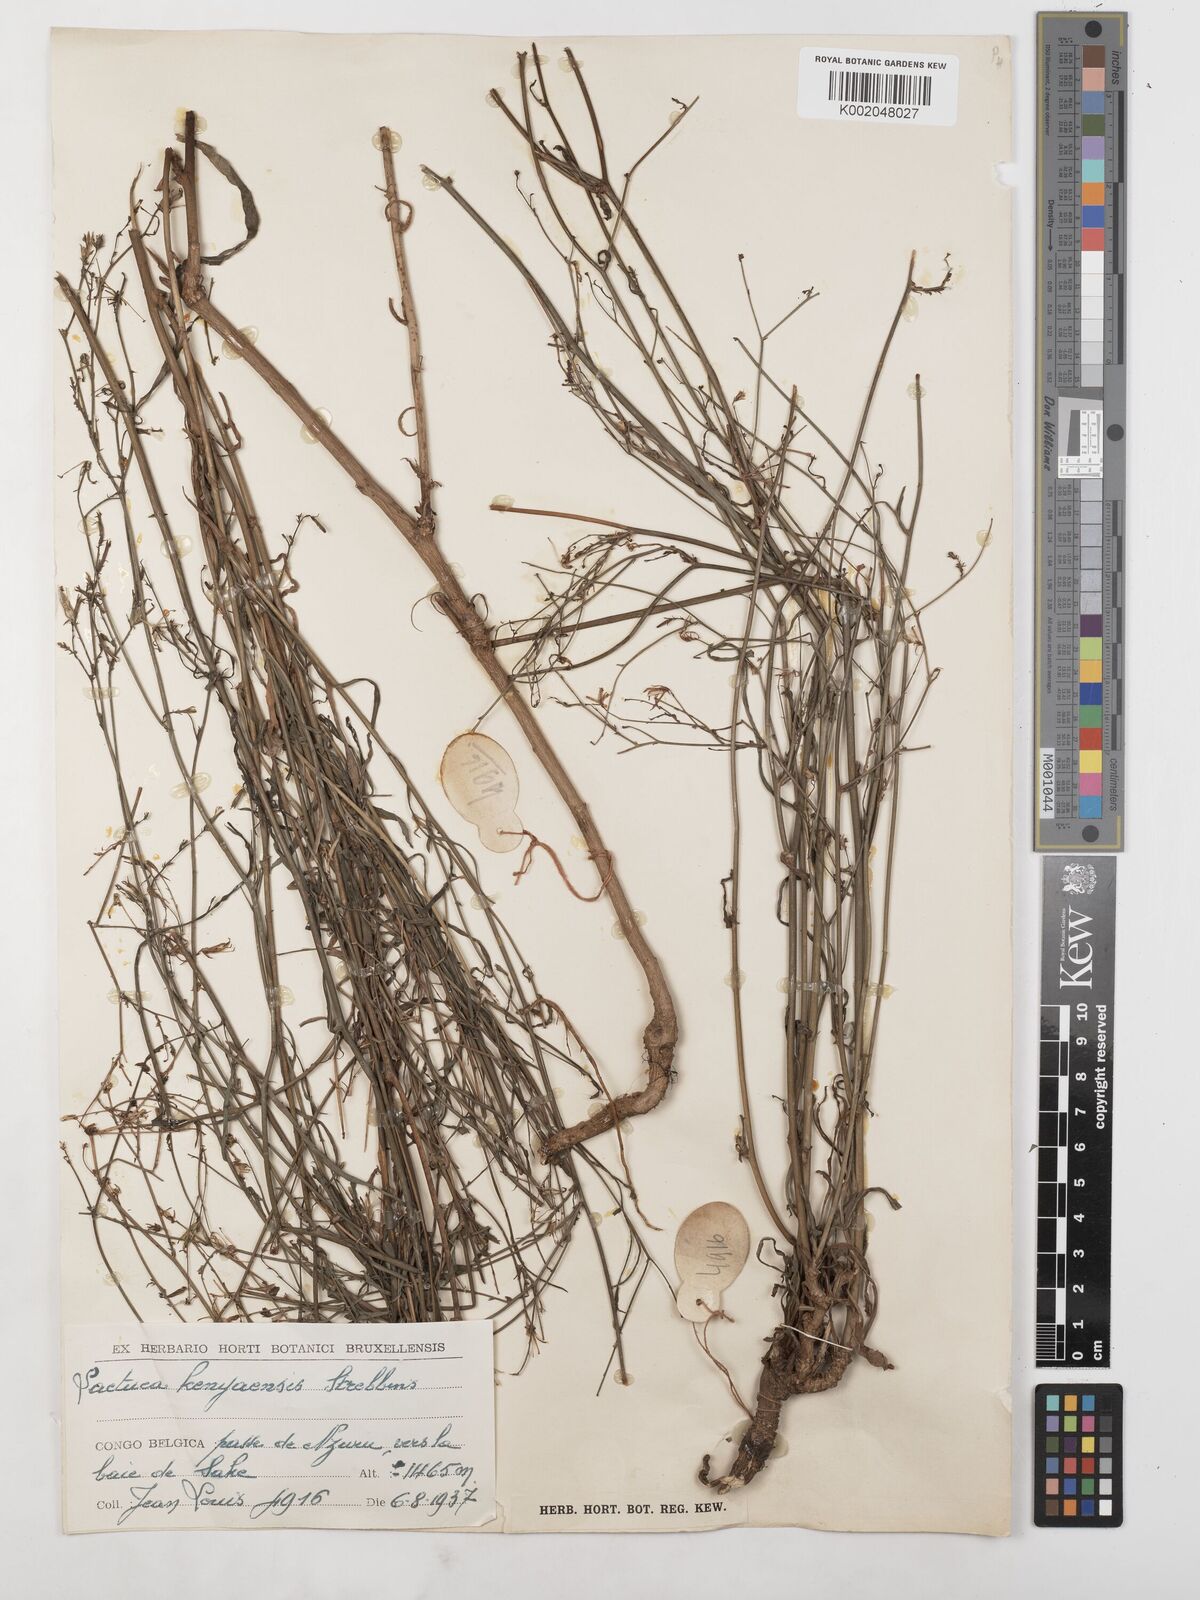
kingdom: Plantae
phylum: Tracheophyta
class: Magnoliopsida
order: Asterales
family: Asteraceae
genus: Lactuca
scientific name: Lactuca inermis
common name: Wild lettuce
